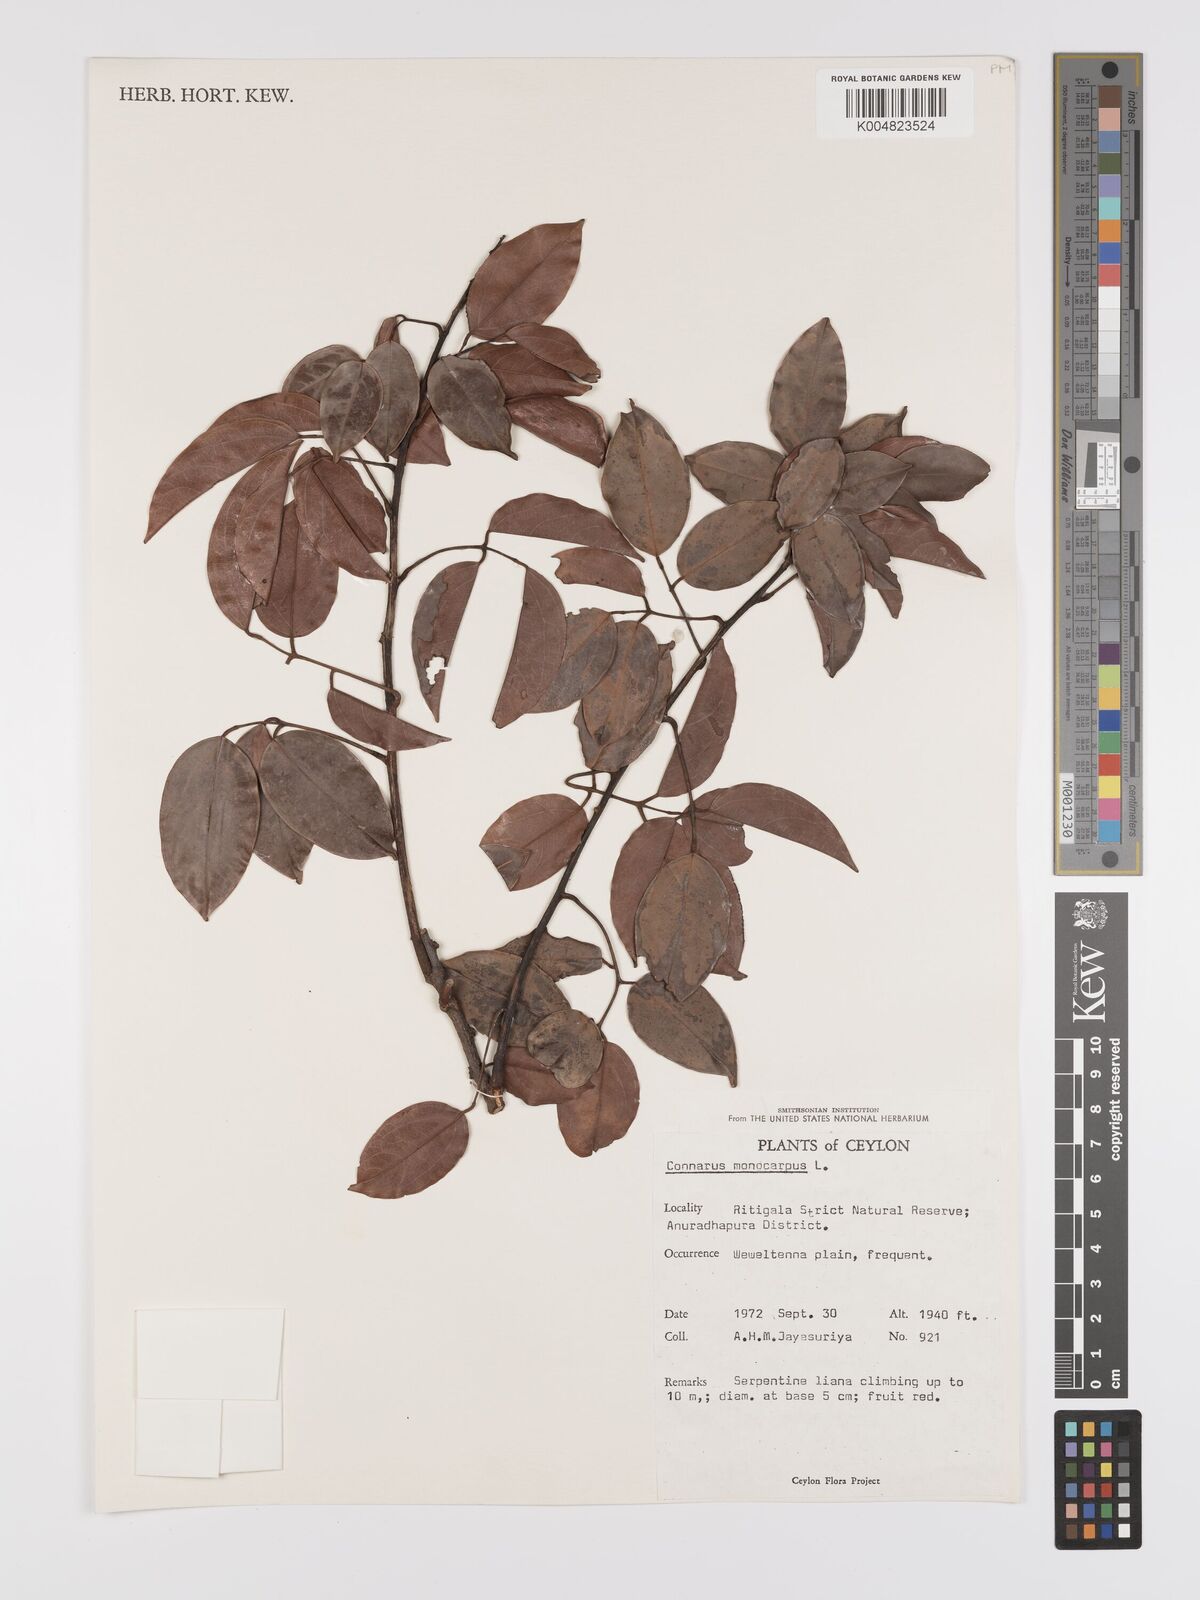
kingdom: Plantae
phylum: Tracheophyta
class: Magnoliopsida
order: Oxalidales
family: Connaraceae
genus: Connarus
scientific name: Connarus semidecandrus
